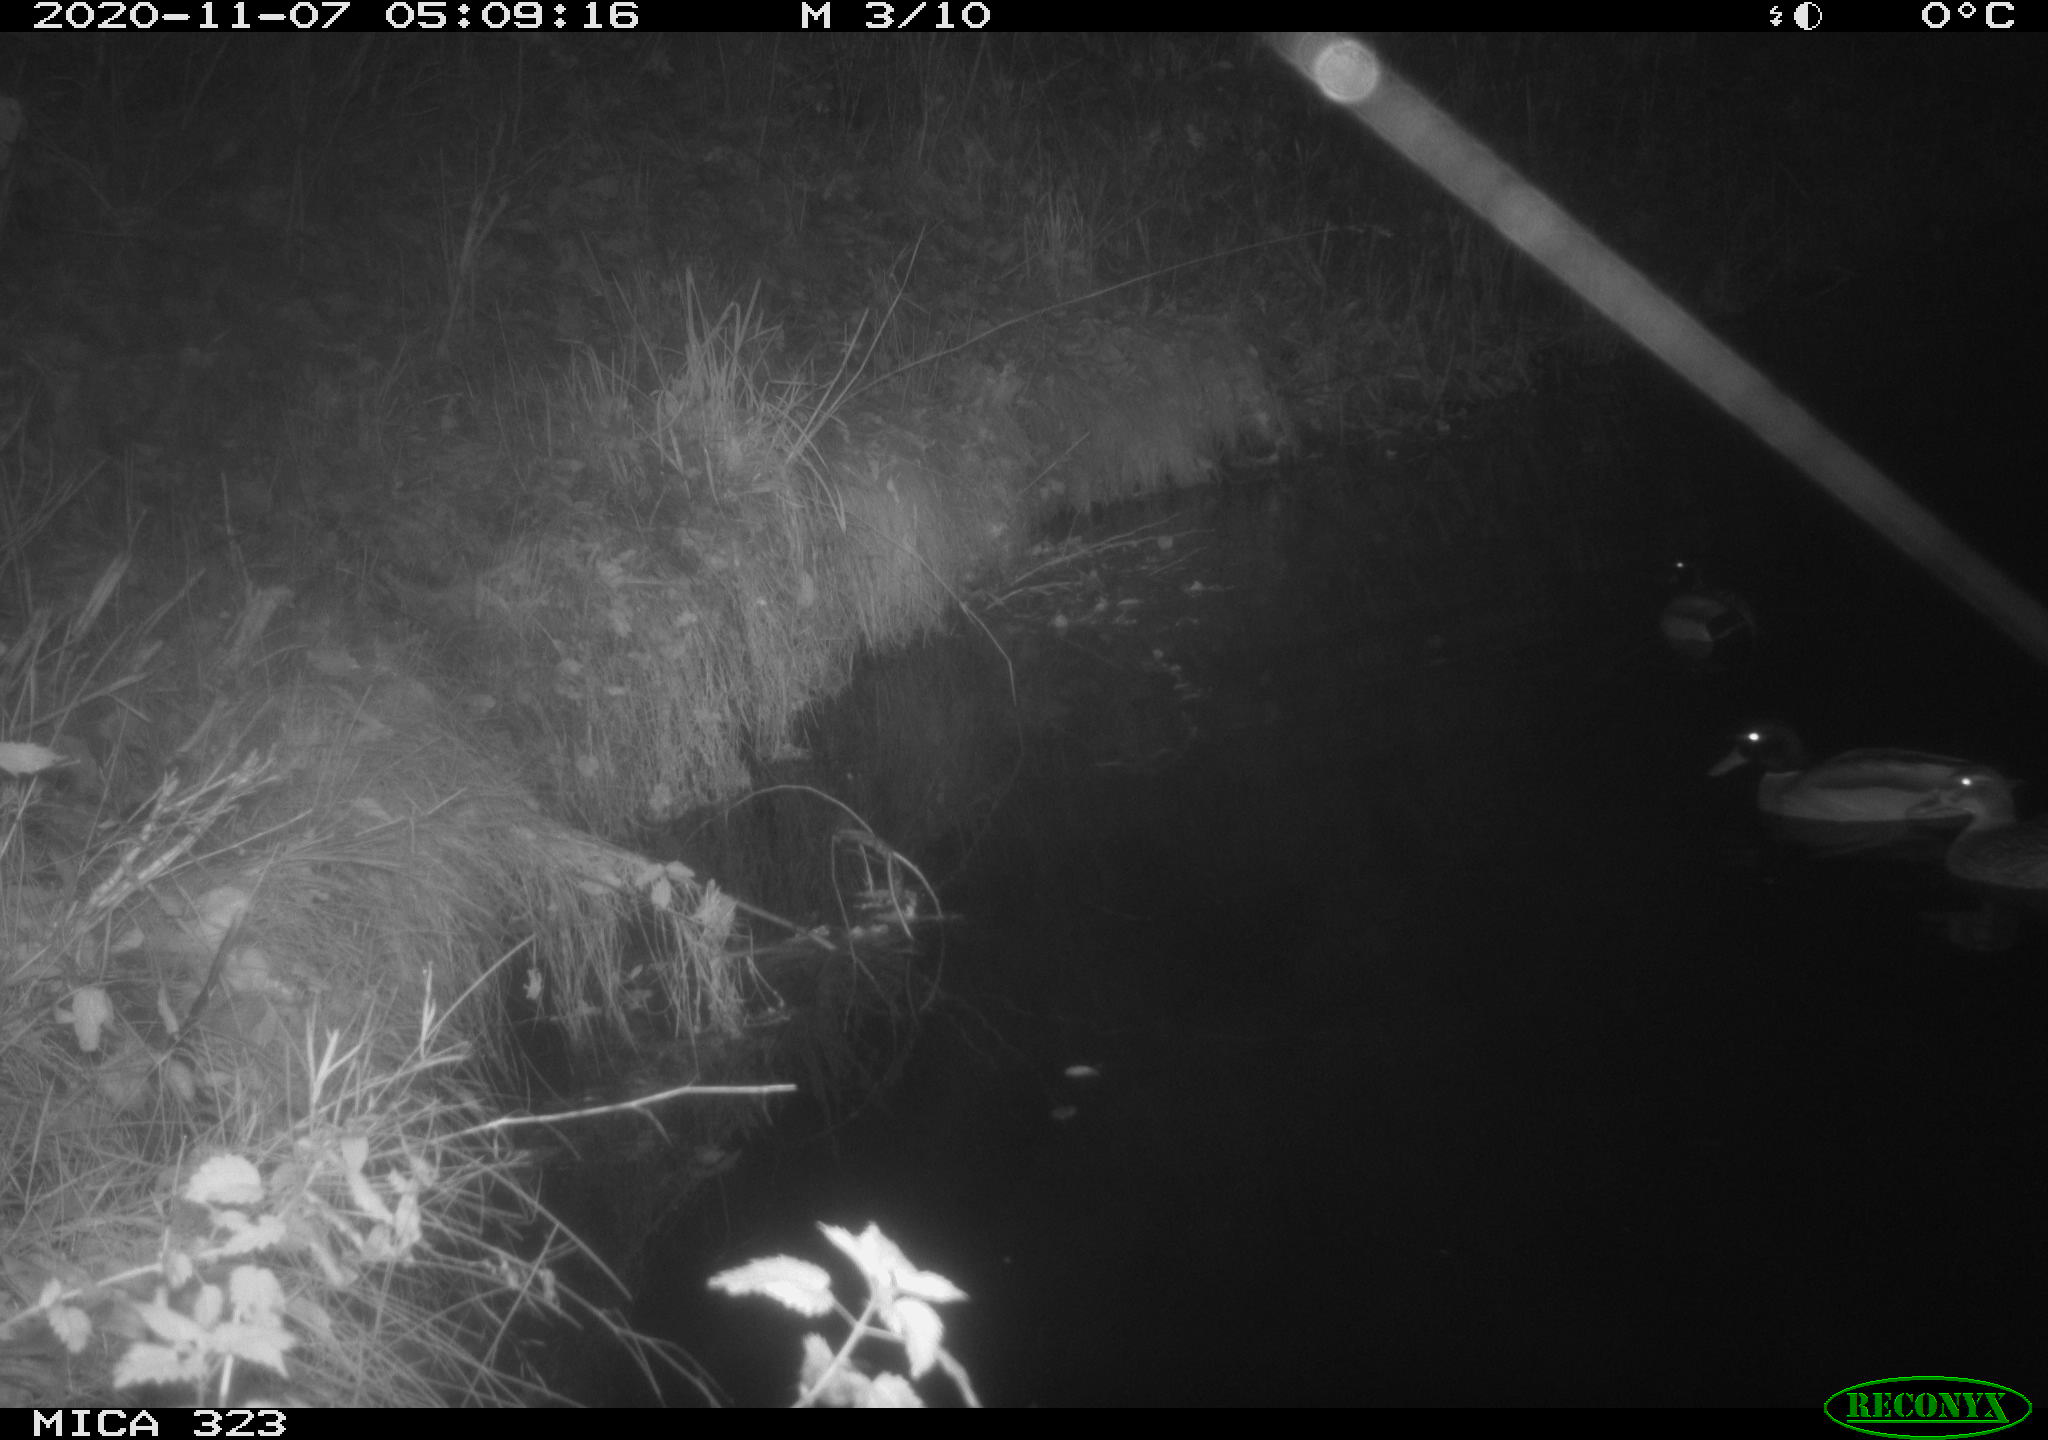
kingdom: Animalia
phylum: Chordata
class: Aves
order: Anseriformes
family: Anatidae
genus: Anas
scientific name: Anas platyrhynchos
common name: Mallard
